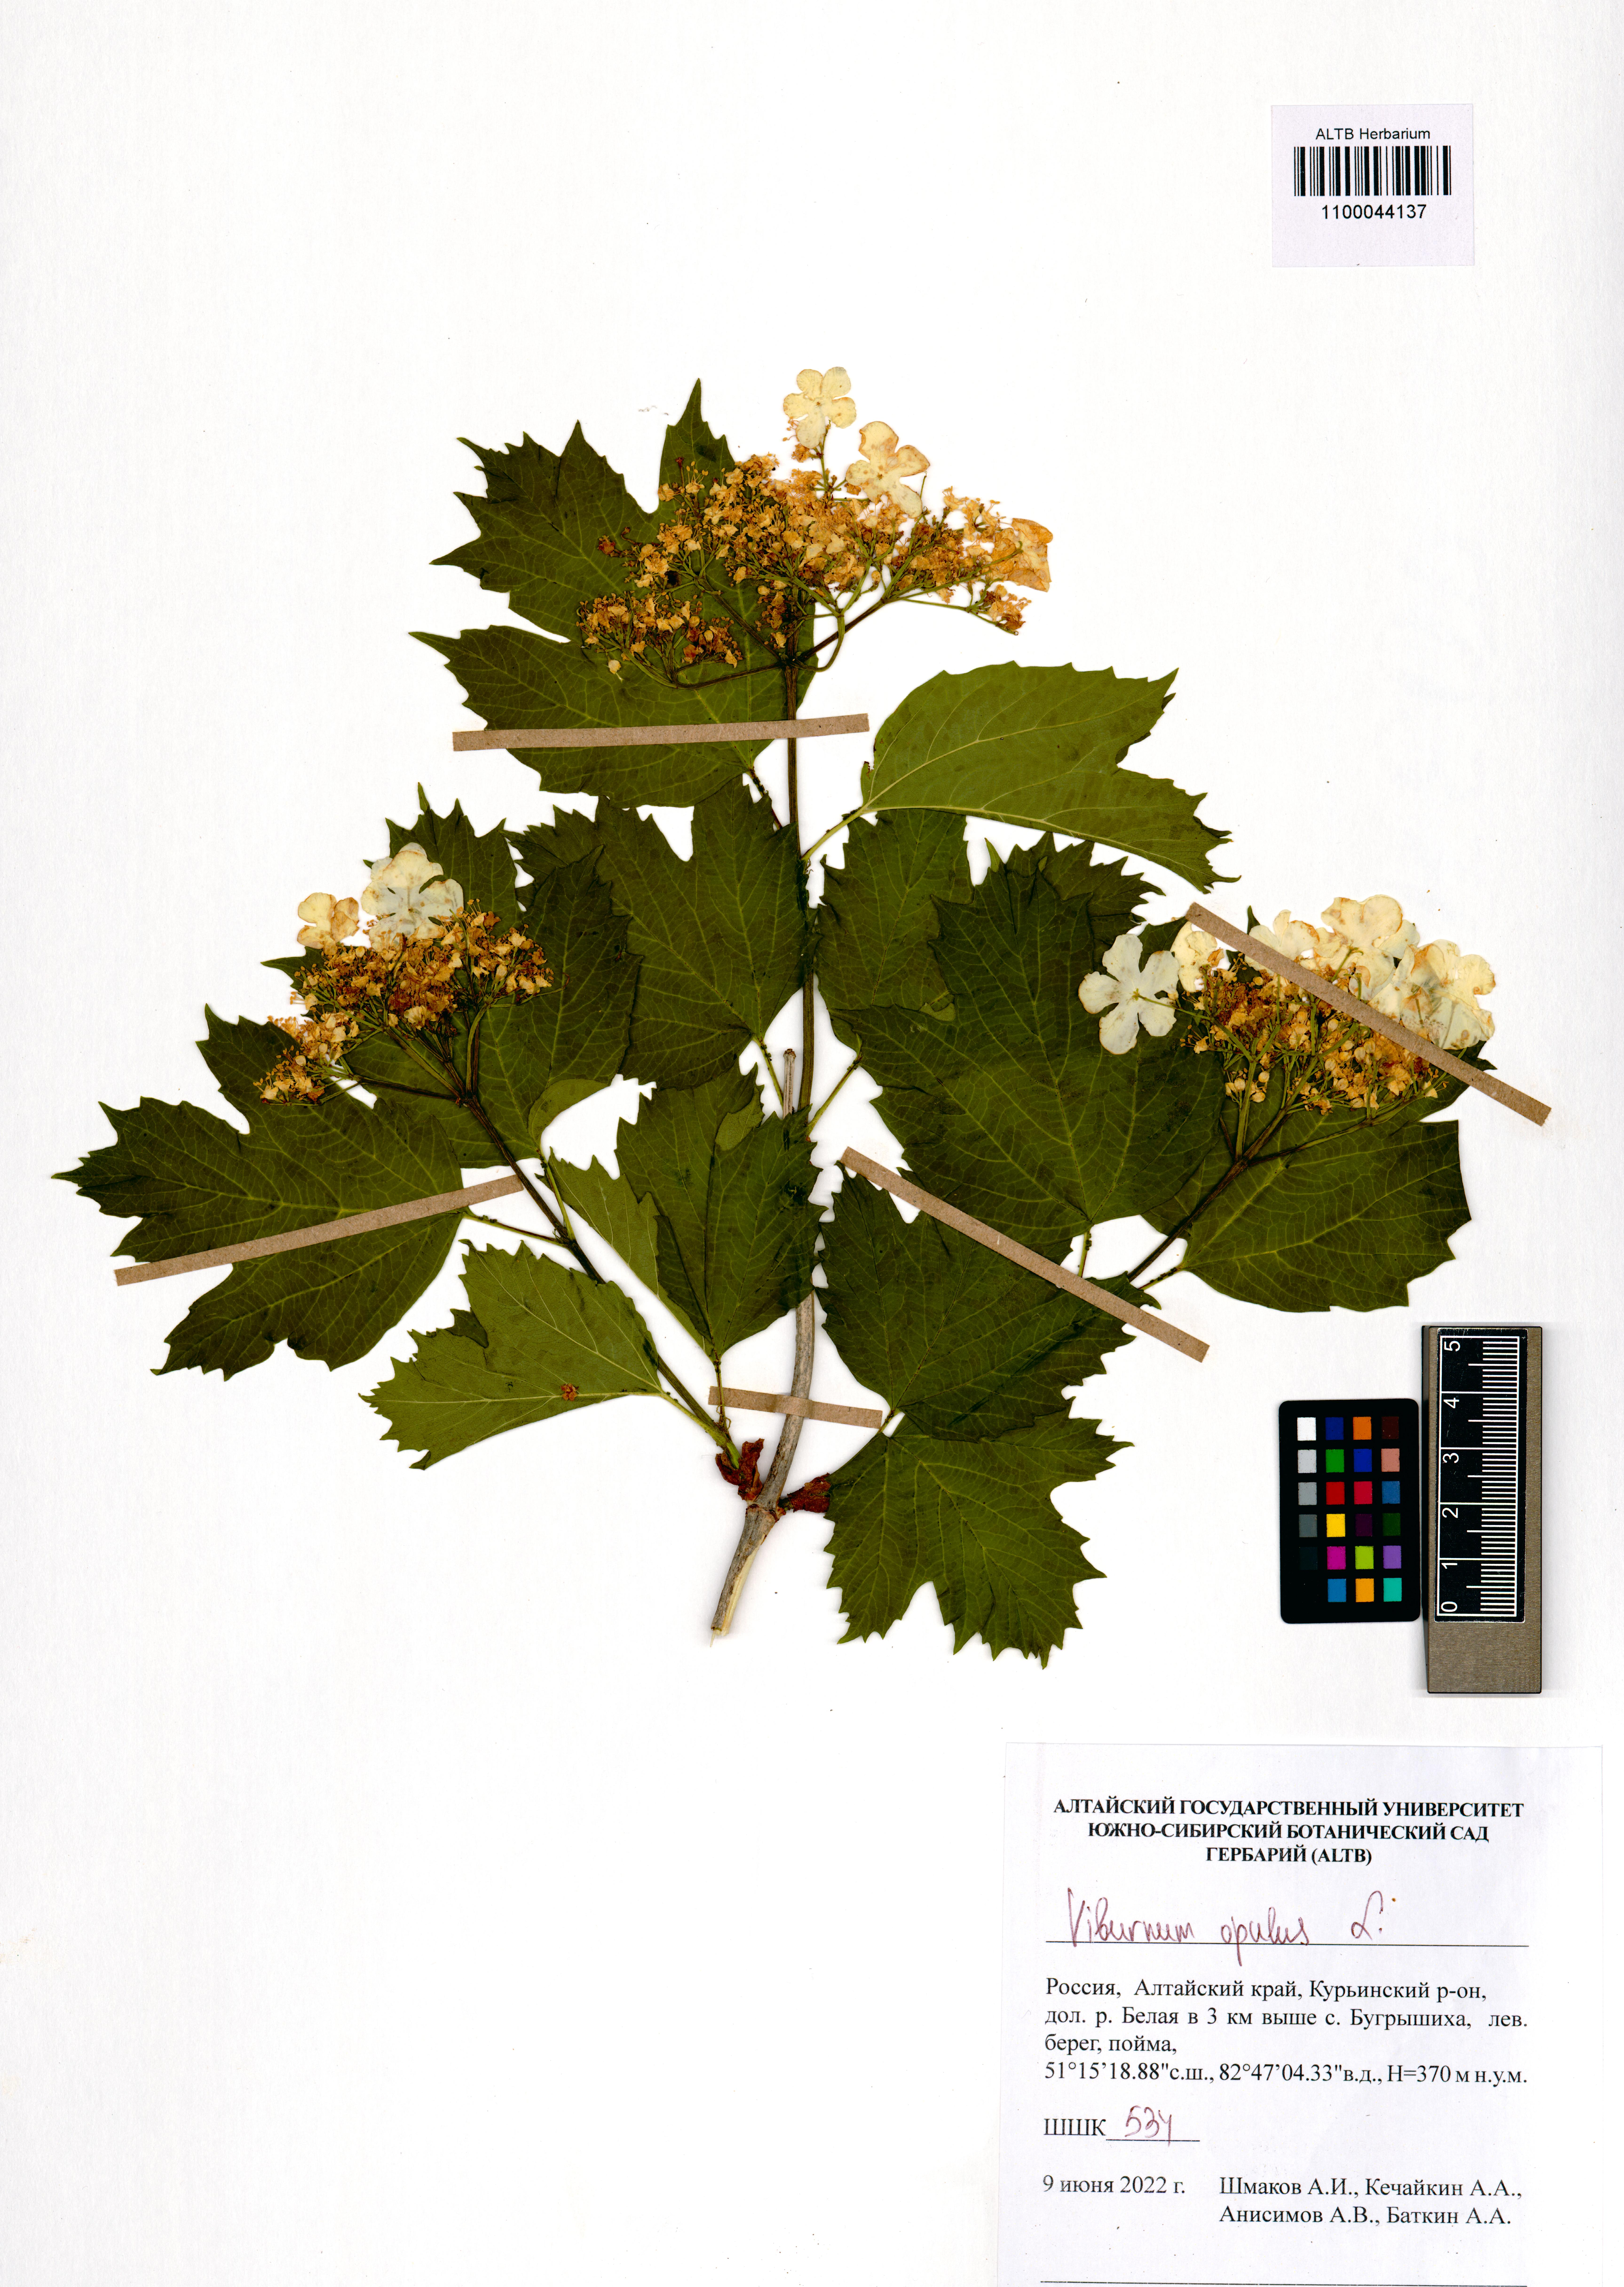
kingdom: Plantae
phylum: Tracheophyta
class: Magnoliopsida
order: Dipsacales
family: Viburnaceae
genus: Viburnum
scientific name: Viburnum opulus
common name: Guelder-rose
